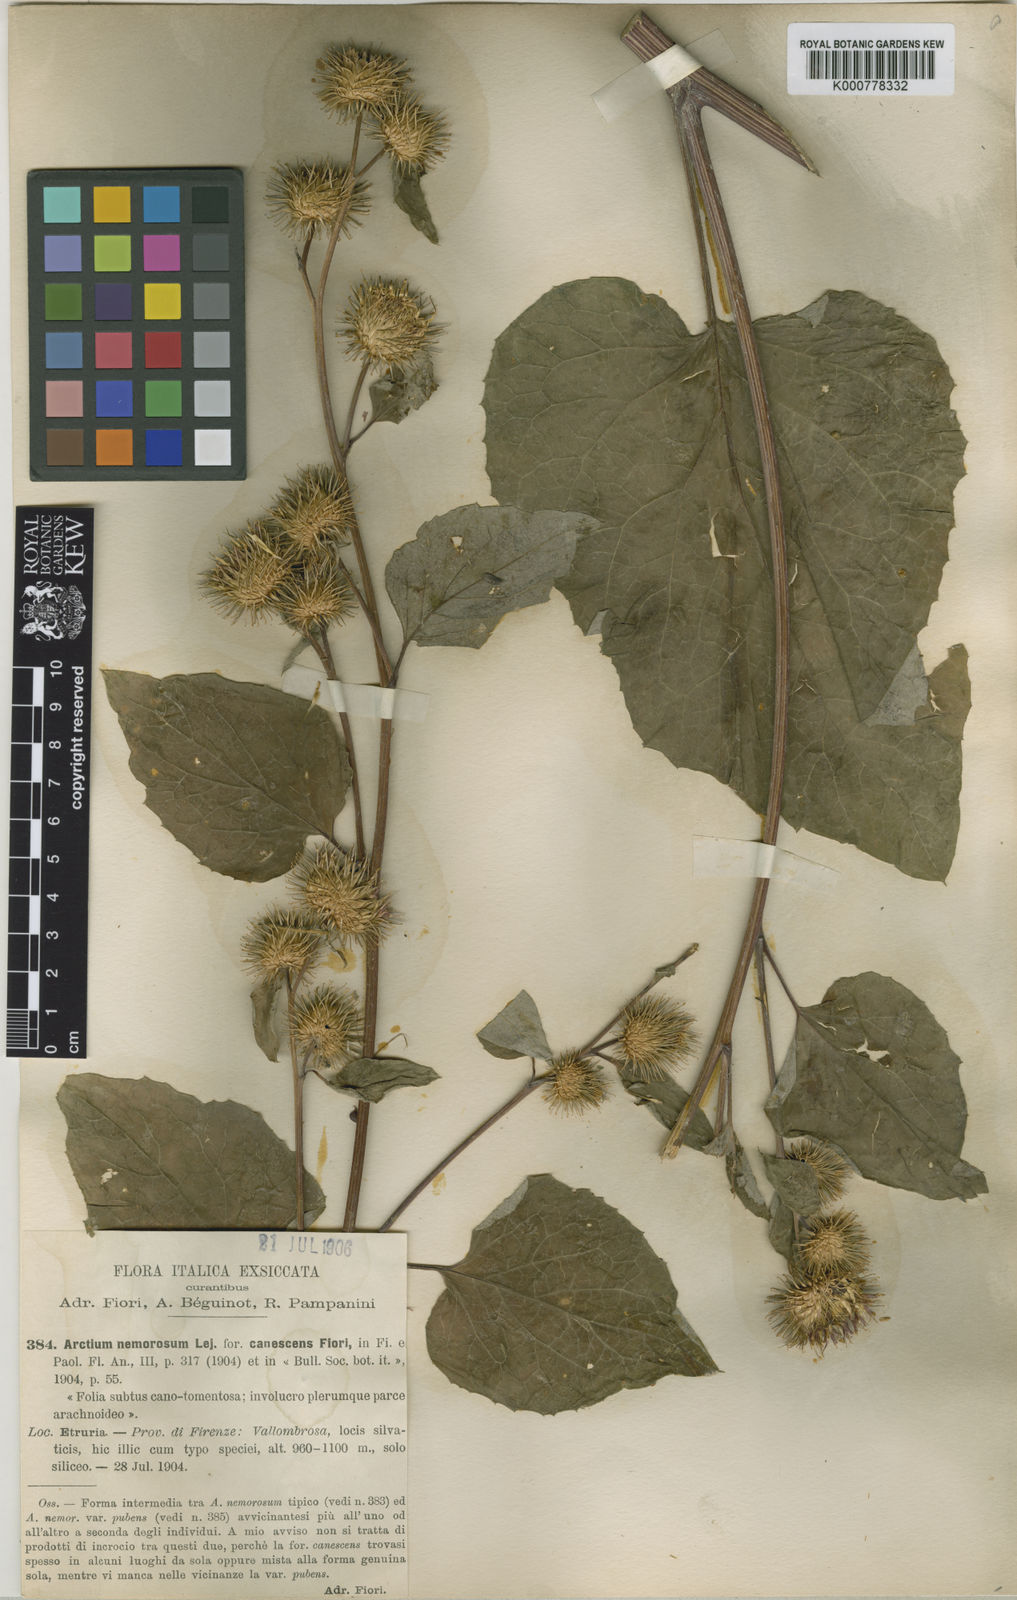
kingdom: Plantae
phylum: Tracheophyta
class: Magnoliopsida
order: Asterales
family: Asteraceae
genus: Arctium
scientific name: Arctium nemorosum
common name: Wood burdock
